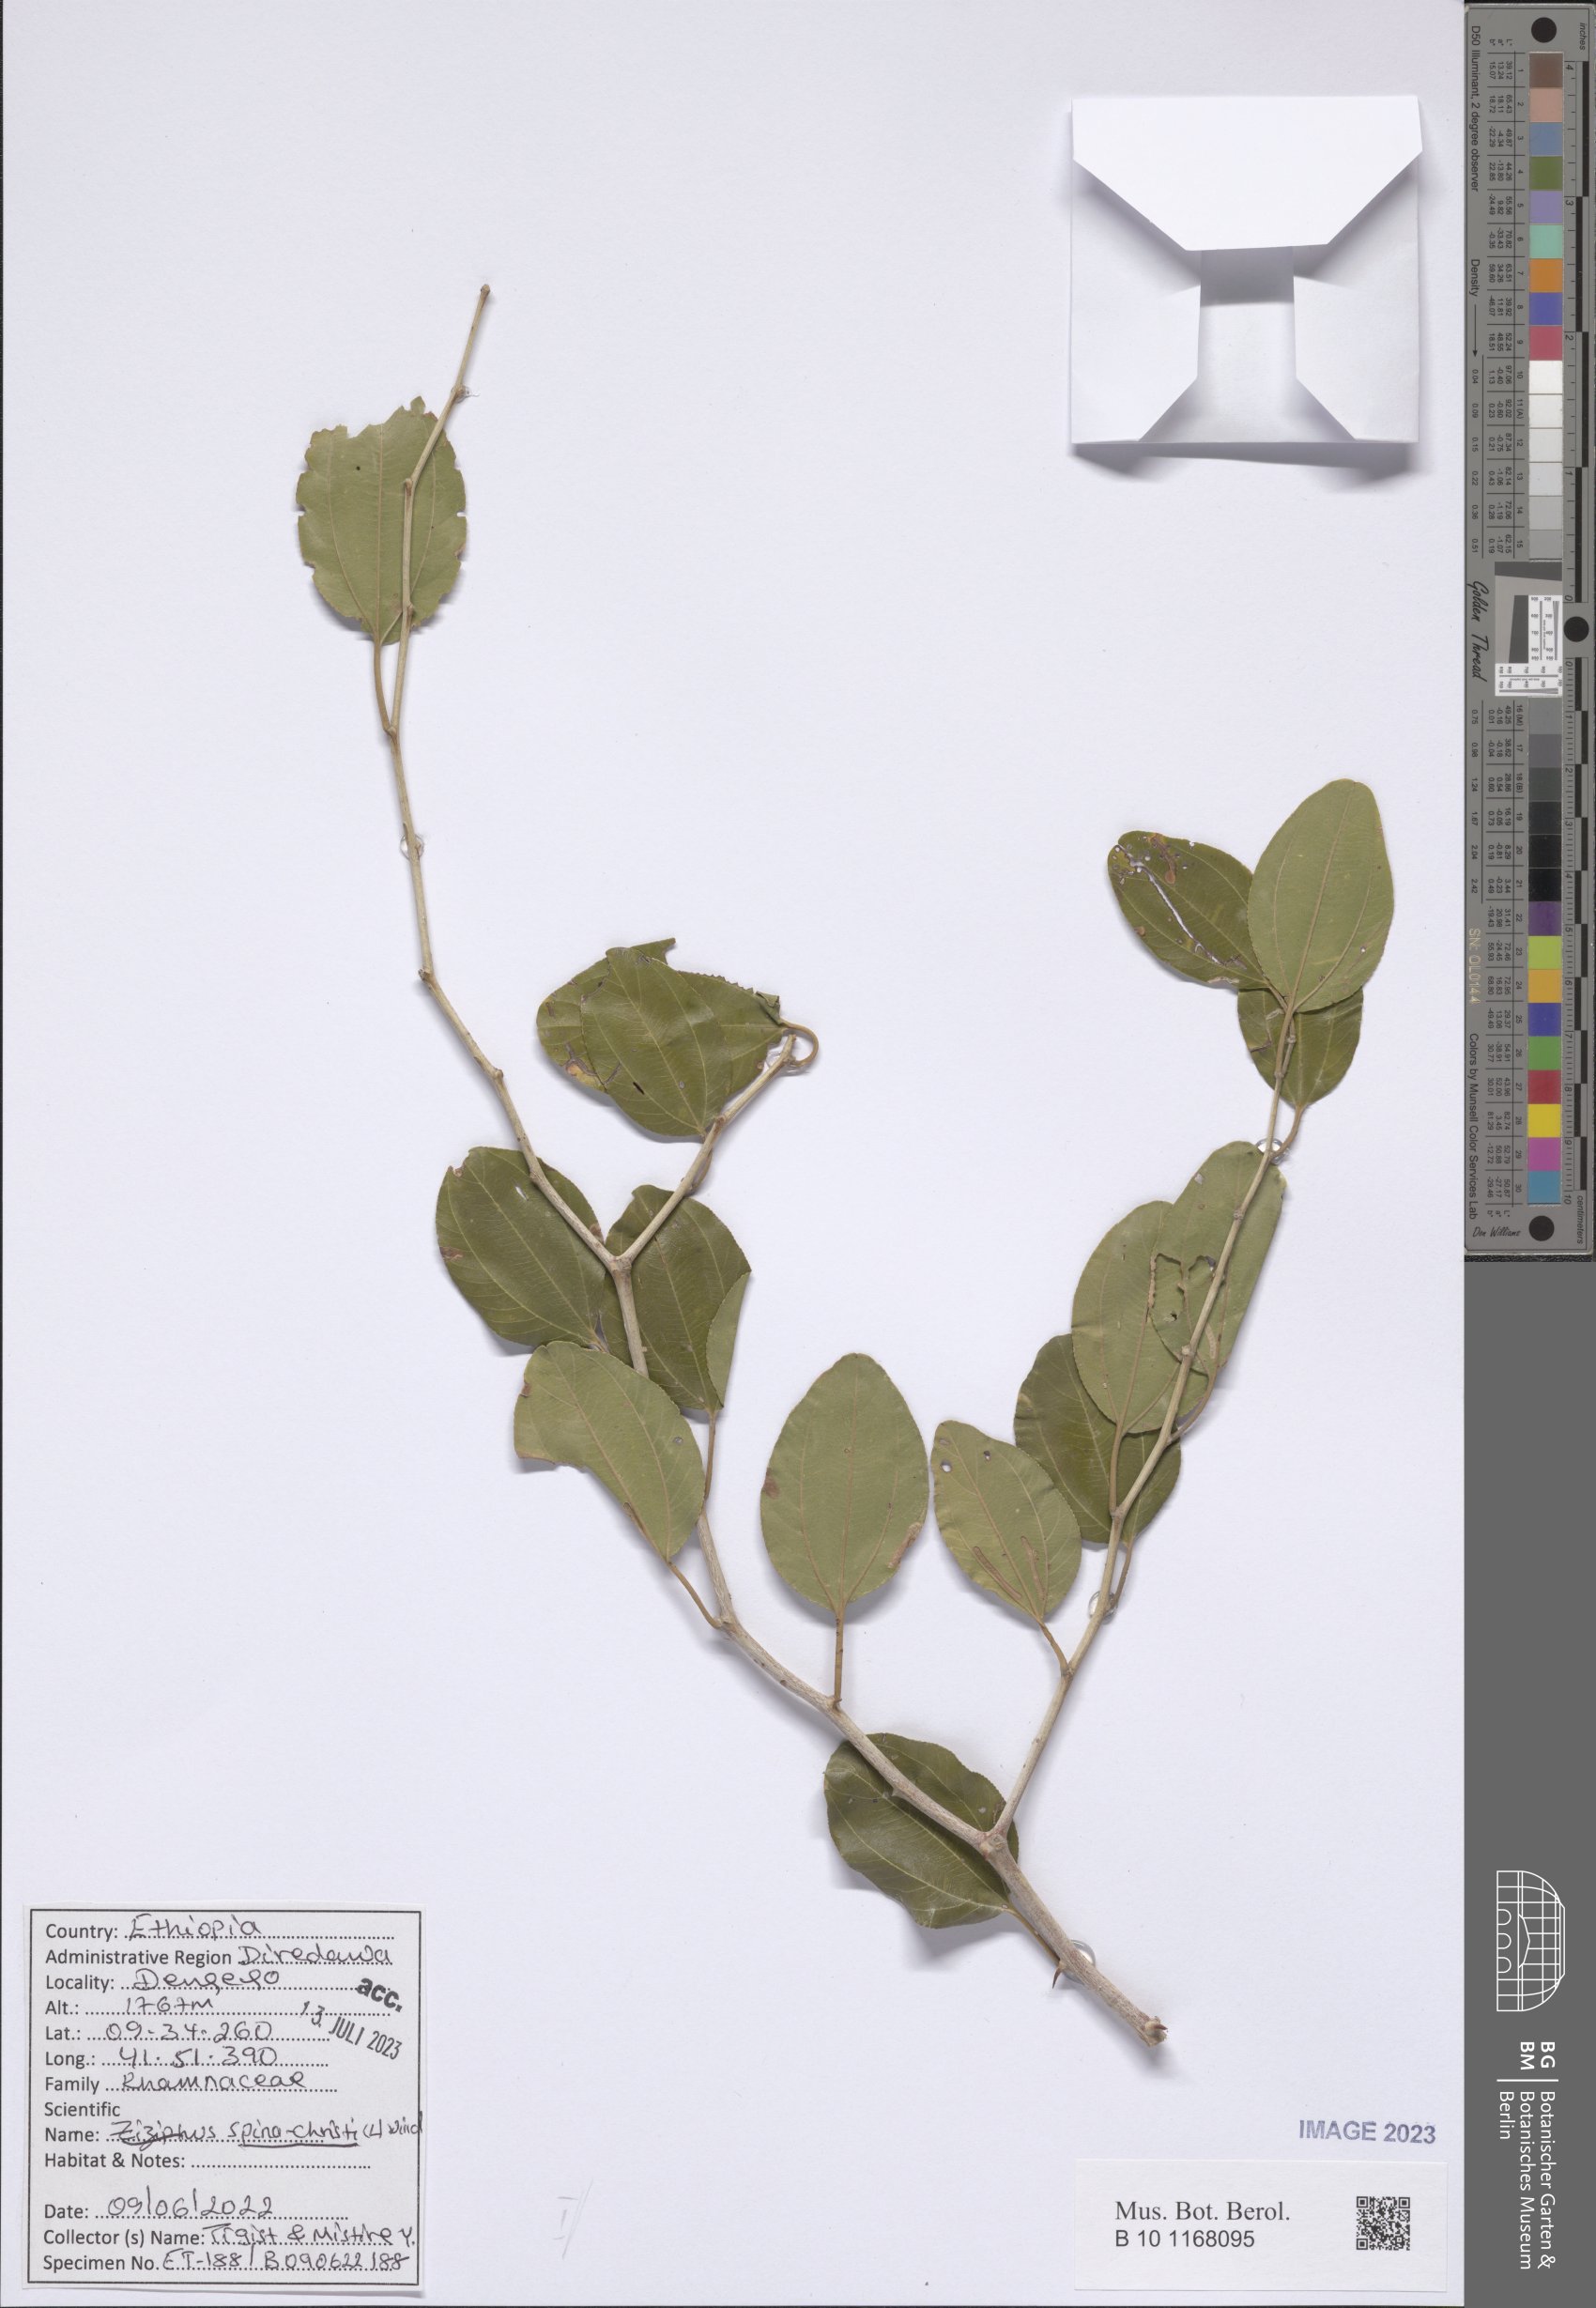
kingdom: Plantae
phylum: Tracheophyta
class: Magnoliopsida
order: Rosales
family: Rhamnaceae
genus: Ziziphus
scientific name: Ziziphus spina-christi
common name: Syrian christ-thorn
